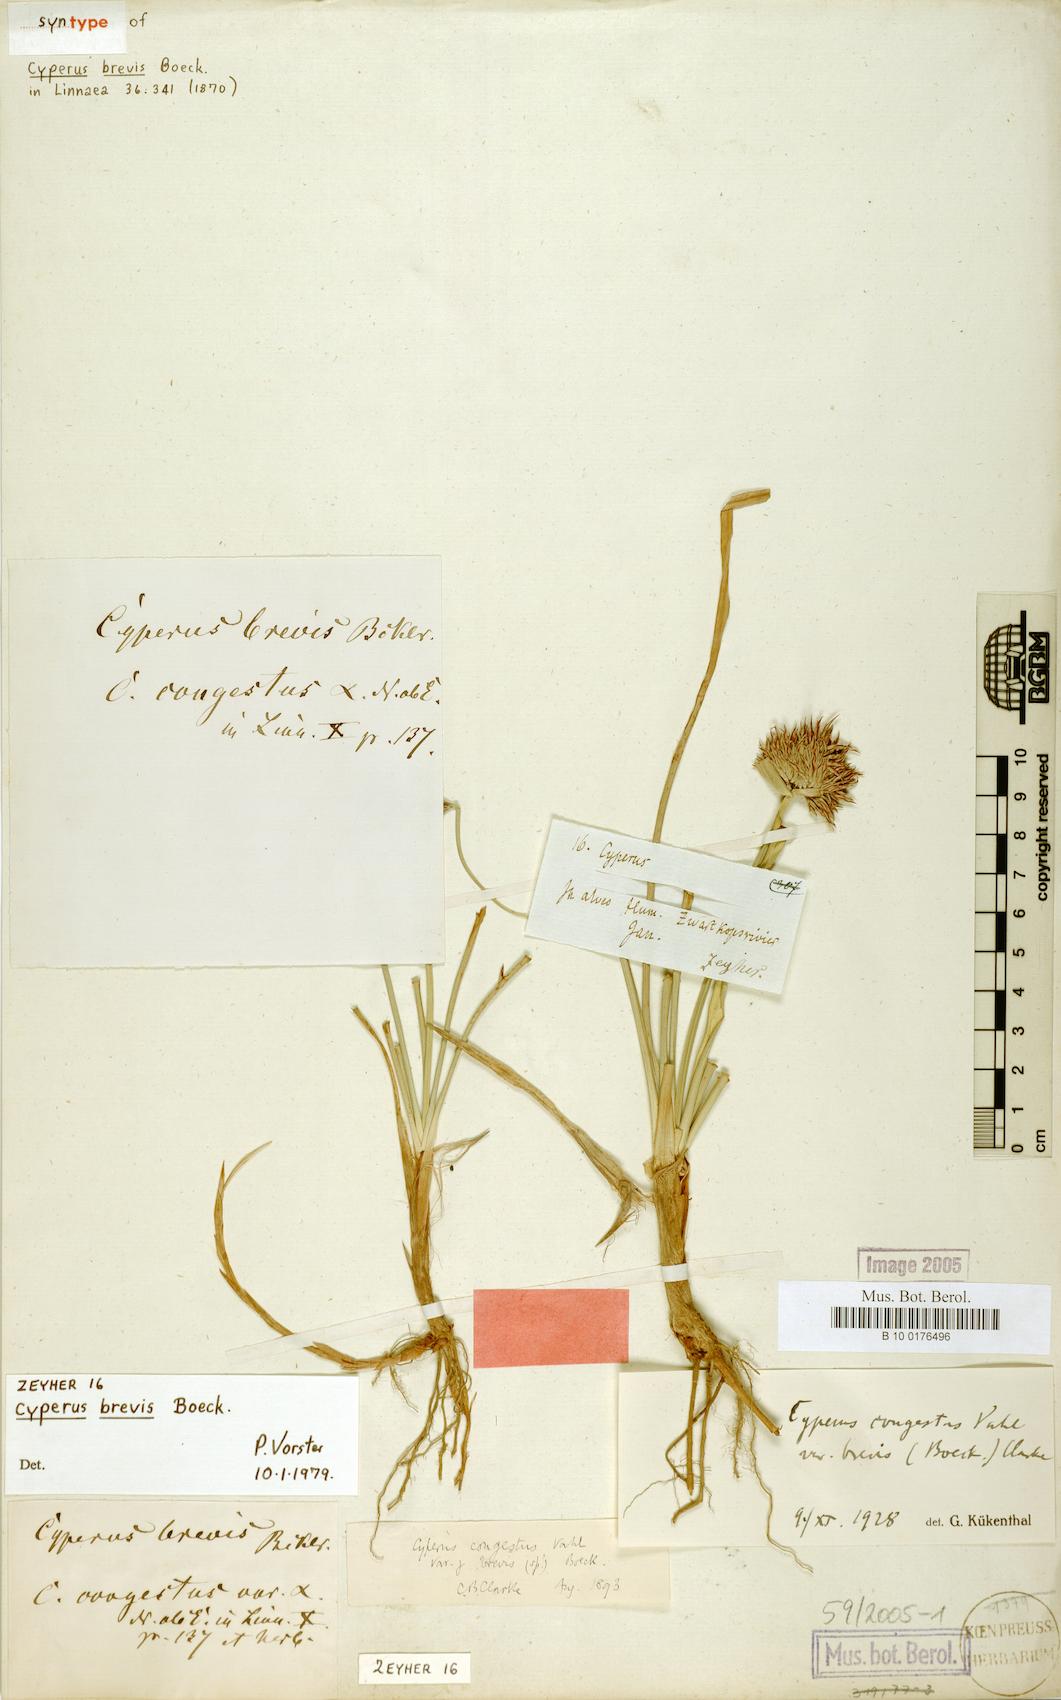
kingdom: Plantae
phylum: Tracheophyta
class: Liliopsida
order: Poales
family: Cyperaceae
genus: Cyperus
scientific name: Cyperus crassipes
